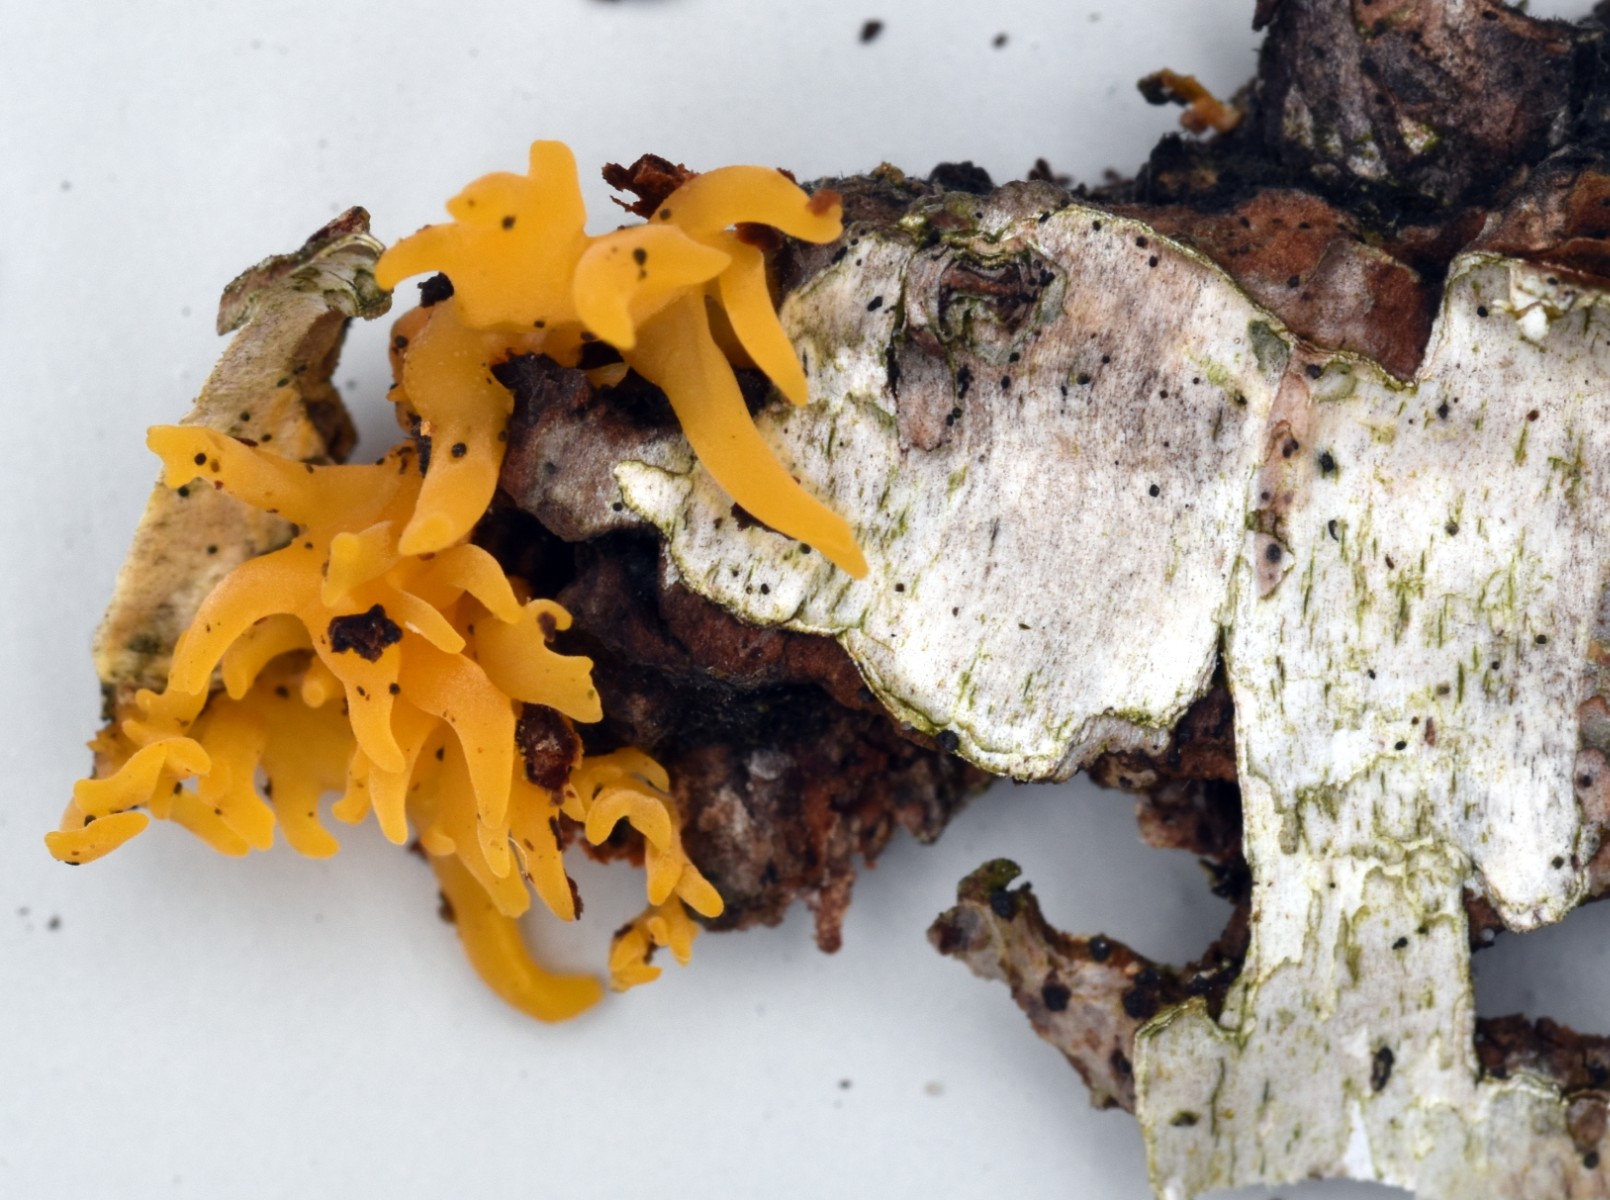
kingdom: Fungi
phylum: Basidiomycota
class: Dacrymycetes
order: Dacrymycetales
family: Dacrymycetaceae
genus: Calocera
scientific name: Calocera cornea
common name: liden guldgaffel
